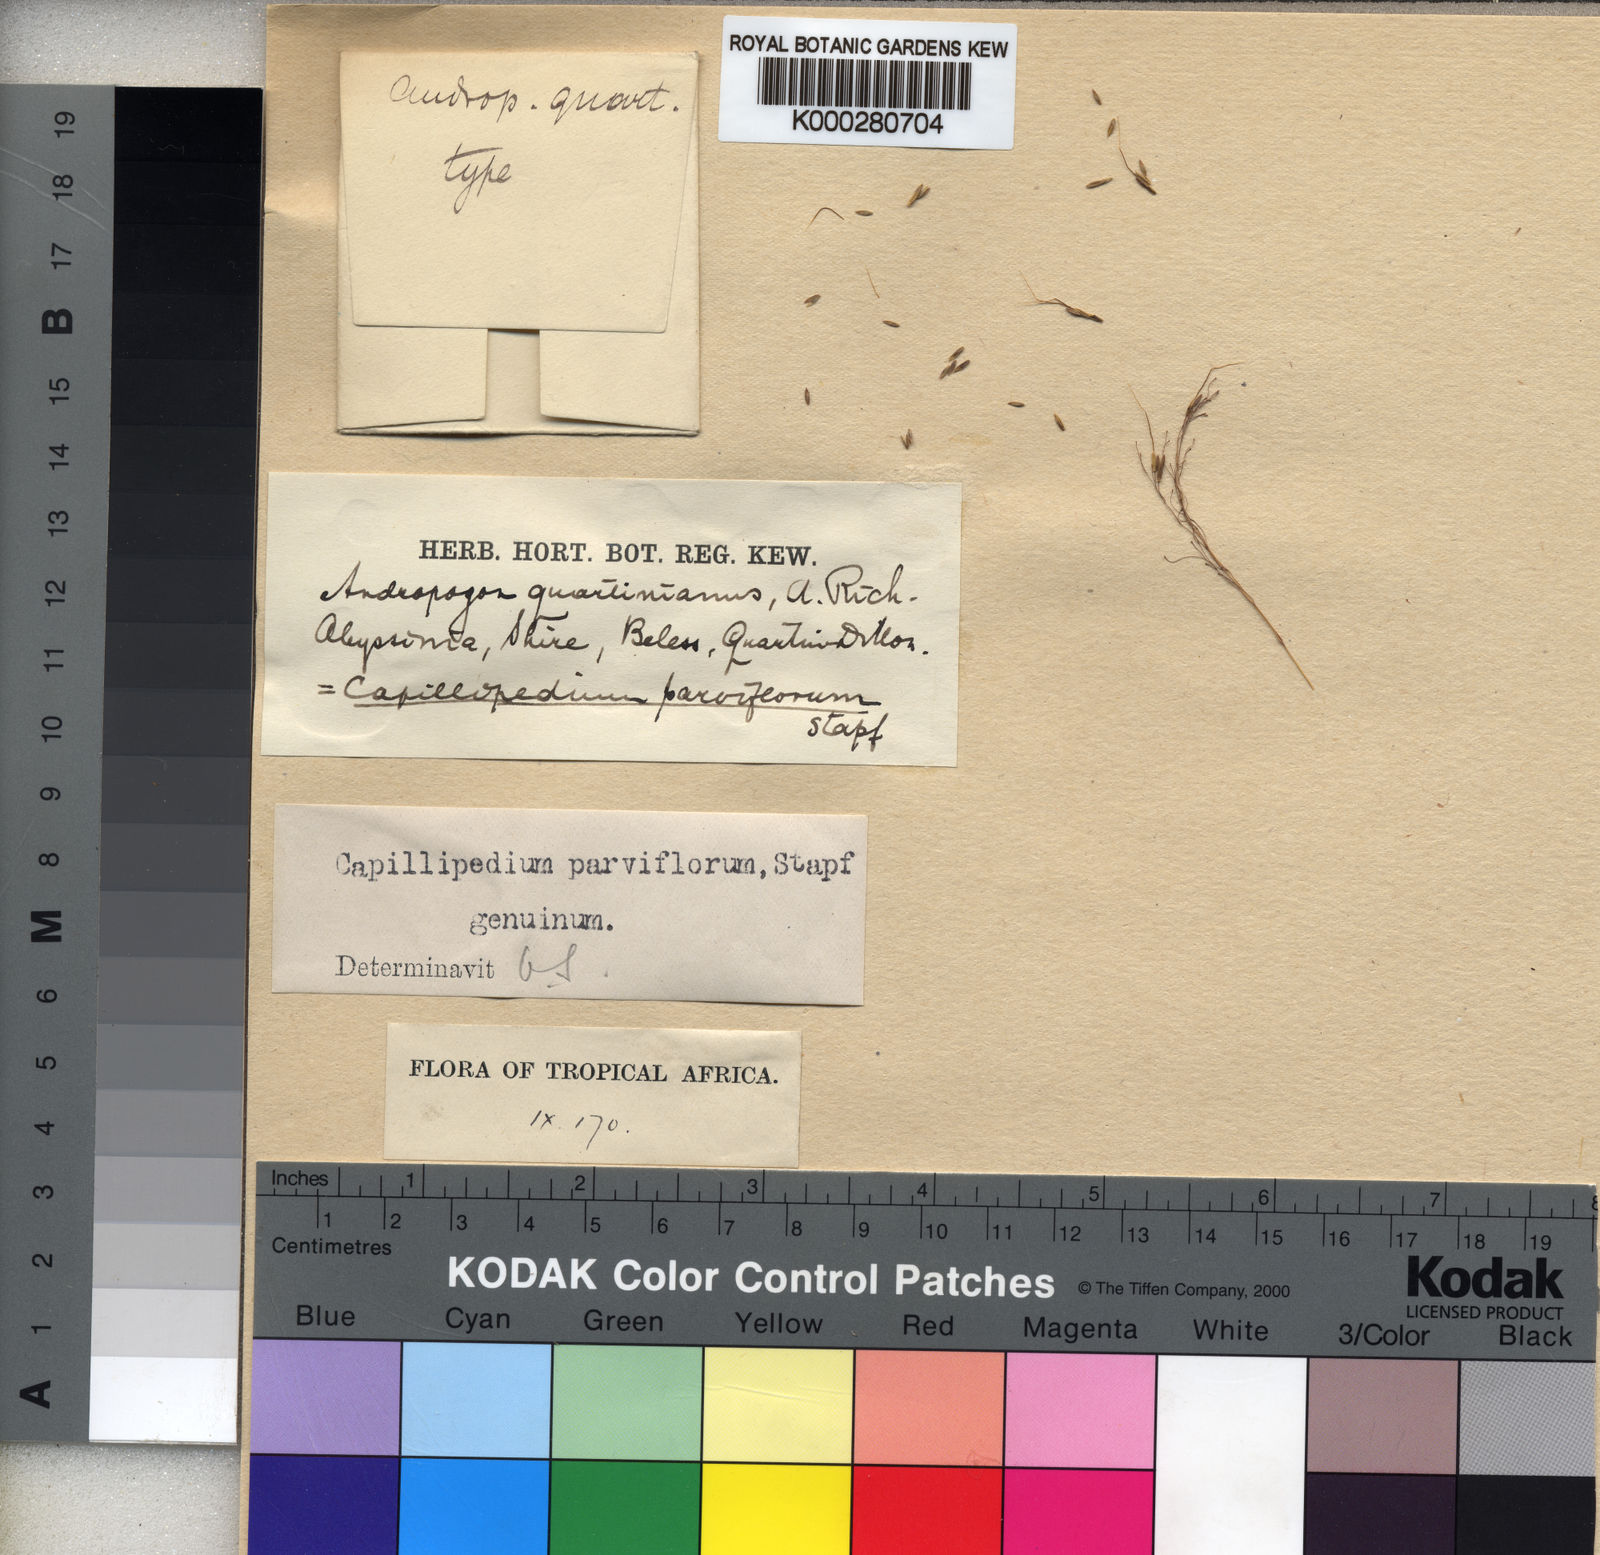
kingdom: Plantae
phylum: Tracheophyta
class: Liliopsida
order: Poales
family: Poaceae
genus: Capillipedium
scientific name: Capillipedium parviflorum
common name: Golden-beard
